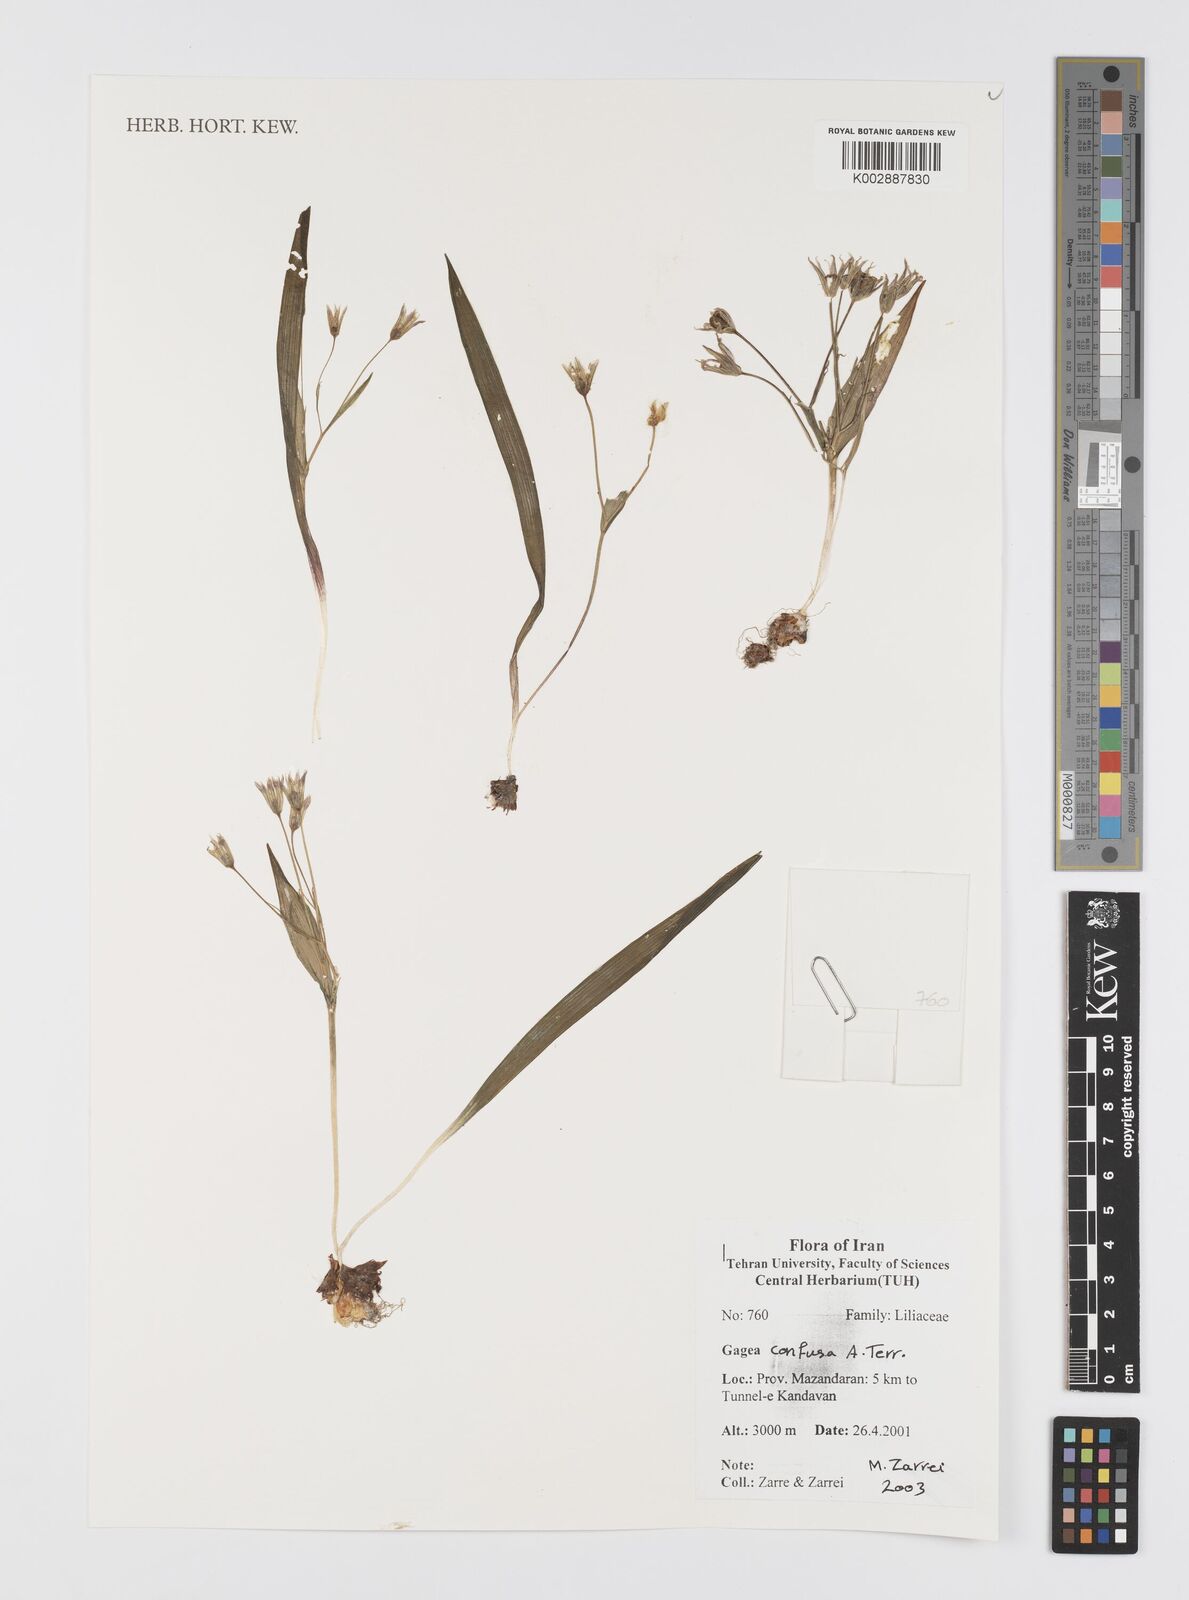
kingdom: Plantae
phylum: Tracheophyta
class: Liliopsida
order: Liliales
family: Liliaceae
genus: Gagea
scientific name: Gagea confusa
